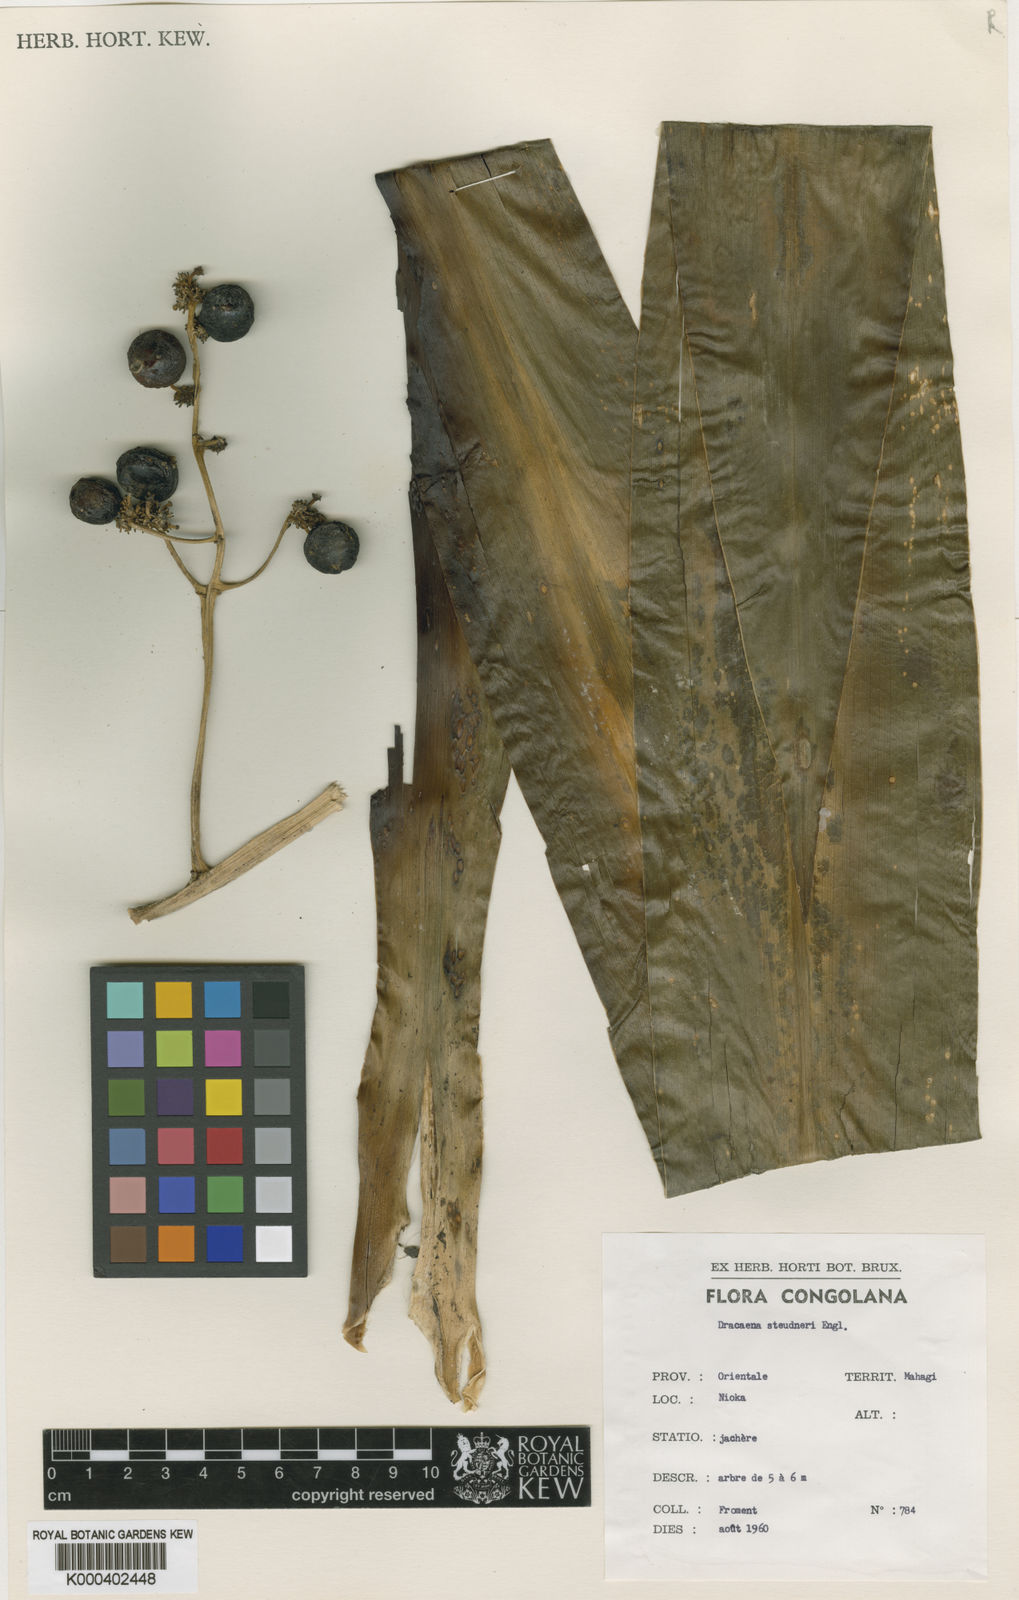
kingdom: Plantae
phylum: Tracheophyta
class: Liliopsida
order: Asparagales
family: Asparagaceae
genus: Dracaena
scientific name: Dracaena steudneri
